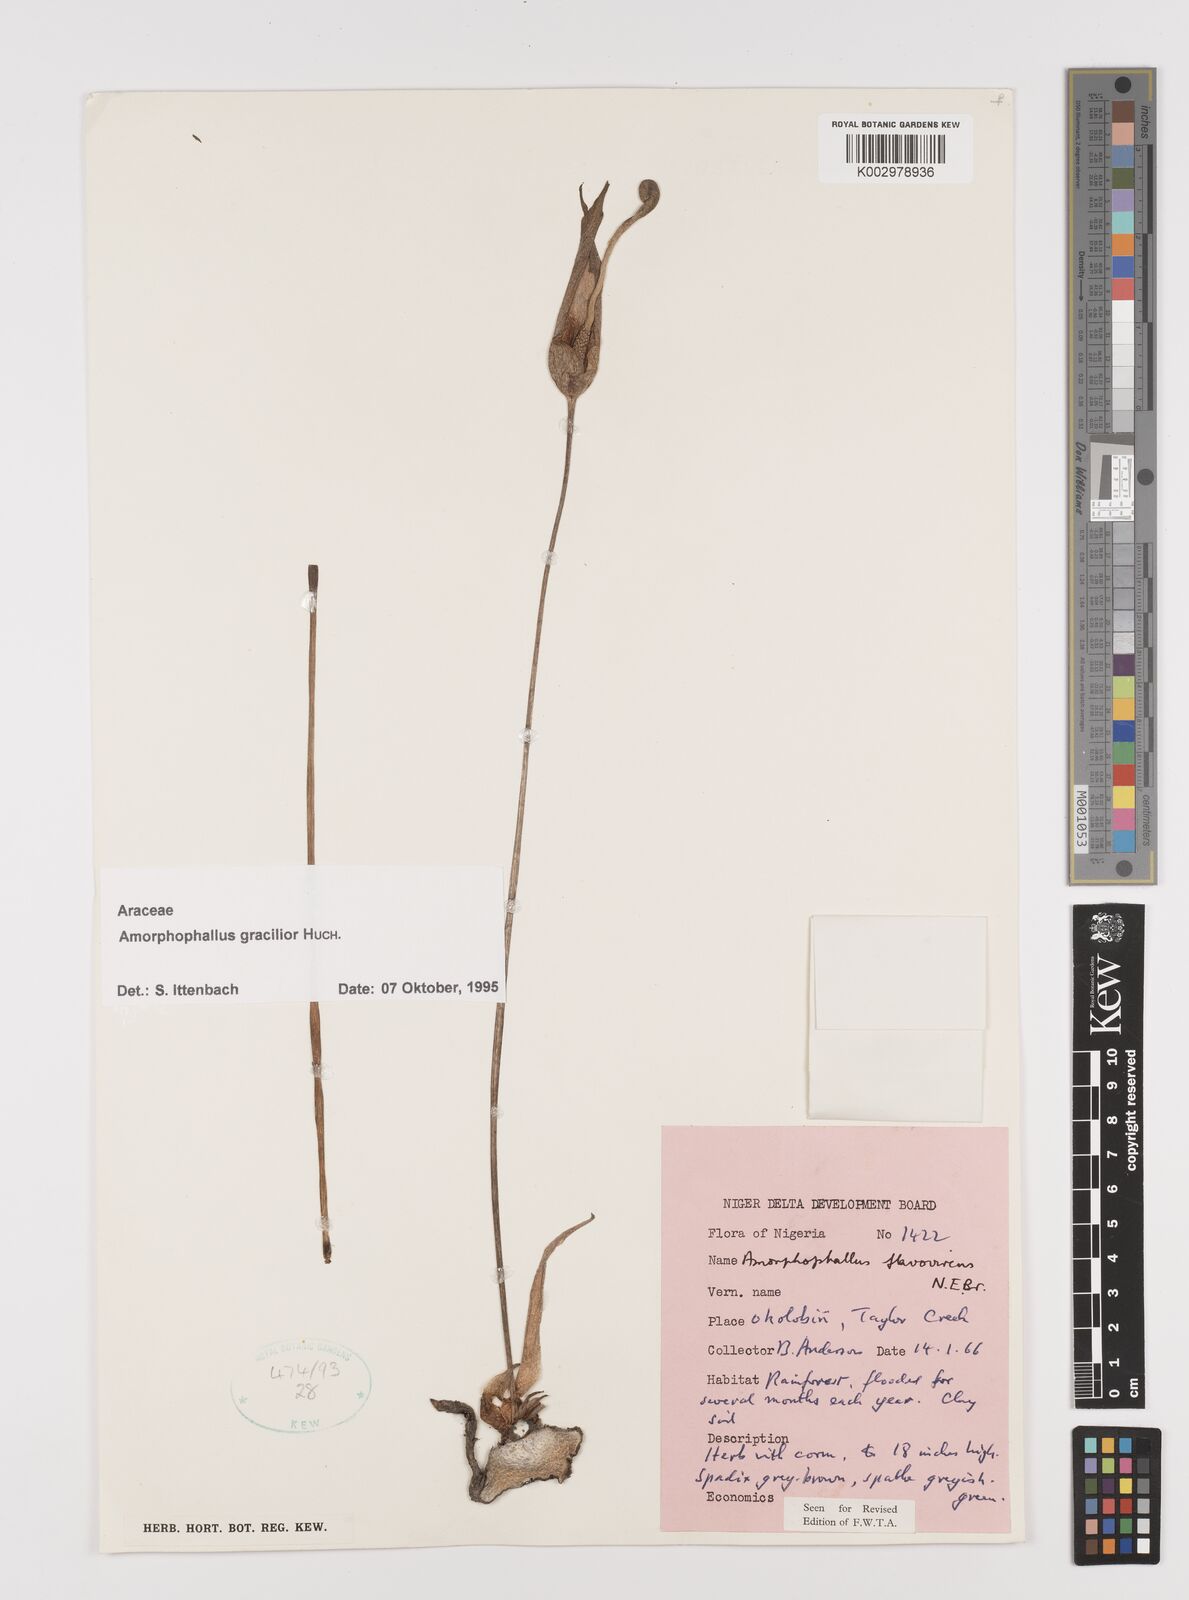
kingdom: Plantae
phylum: Tracheophyta
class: Liliopsida
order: Alismatales
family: Araceae
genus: Amorphophallus
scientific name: Amorphophallus gracilior
